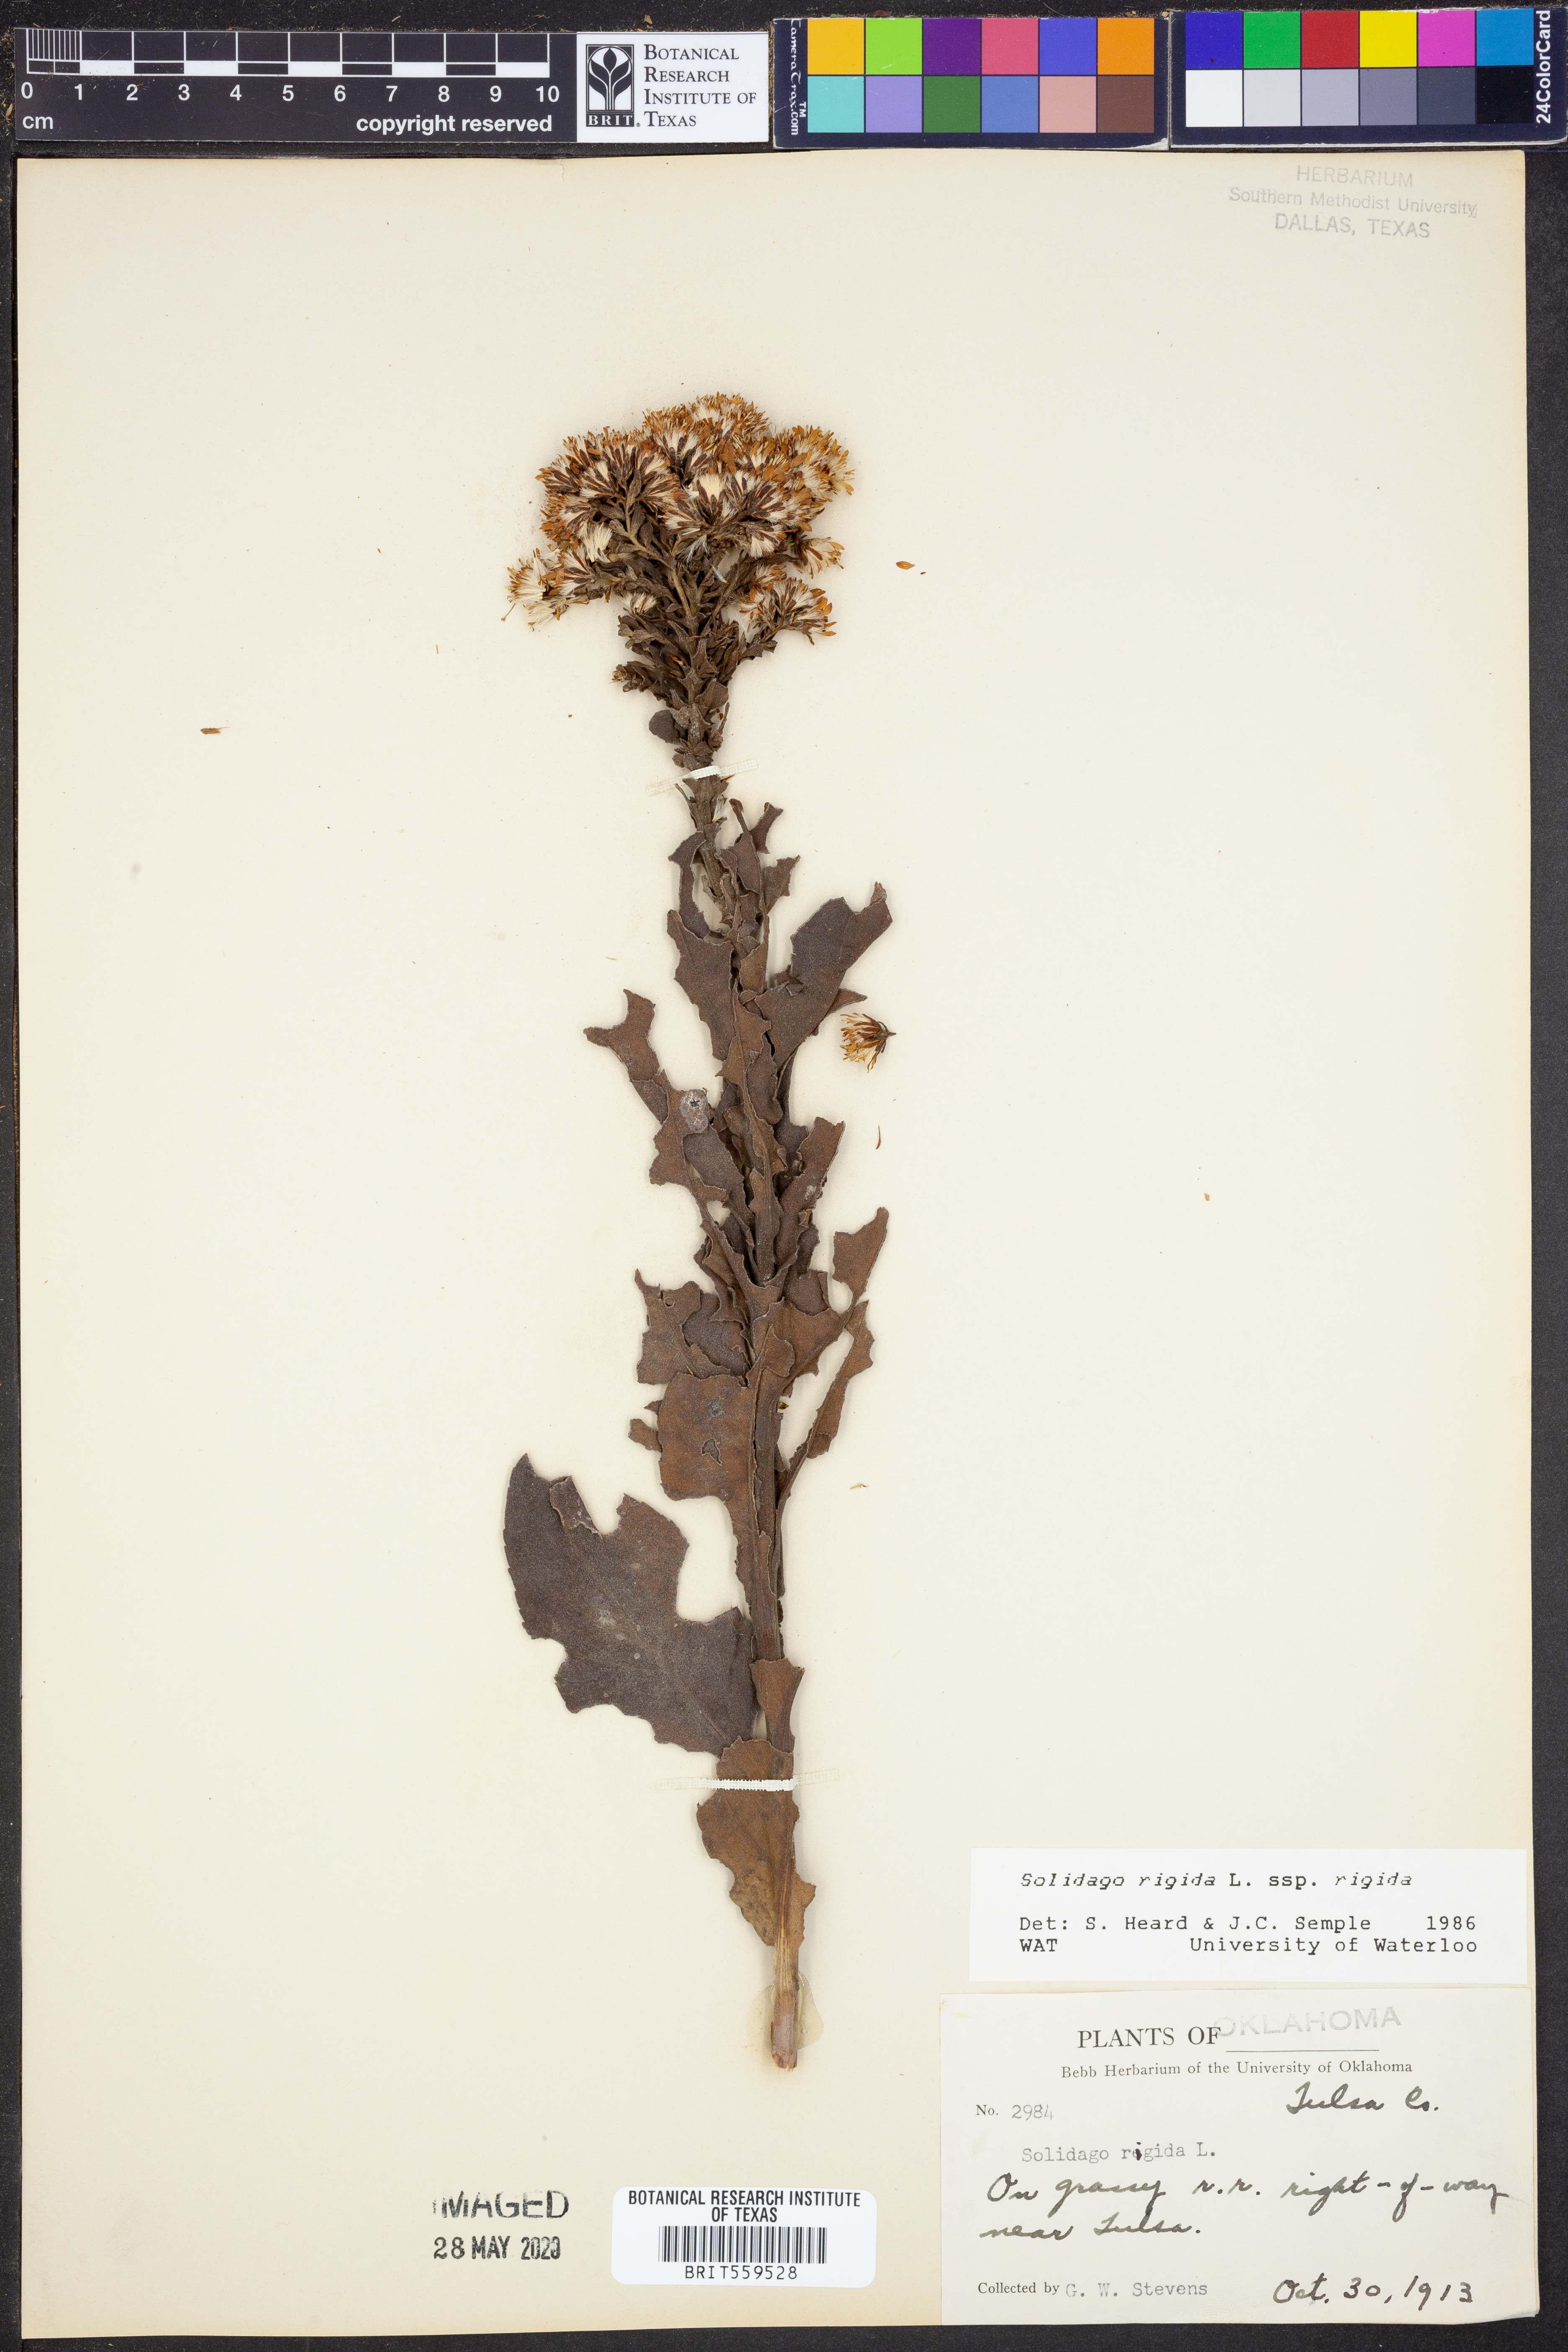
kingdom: Plantae
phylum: Tracheophyta
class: Magnoliopsida
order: Asterales
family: Asteraceae
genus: Solidago
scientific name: Solidago rigida
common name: Rigid goldenrod
